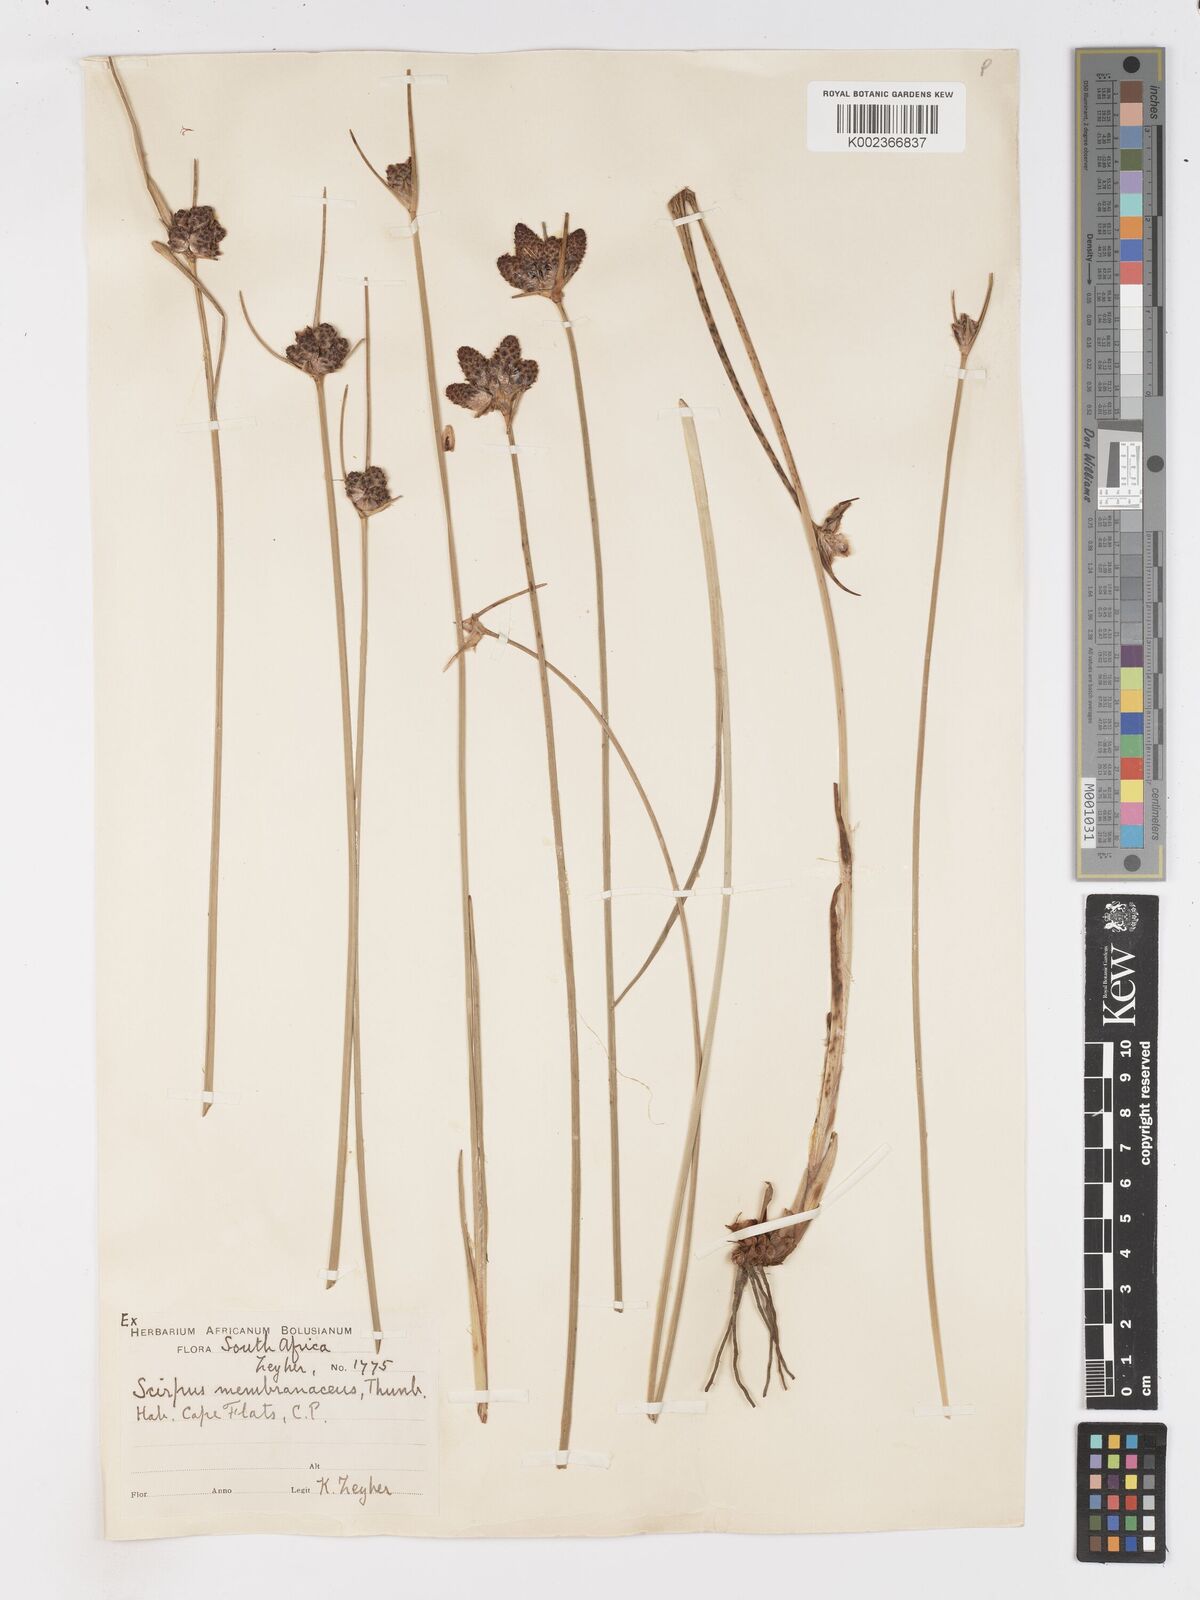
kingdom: Plantae
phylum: Tracheophyta
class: Liliopsida
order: Poales
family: Cyperaceae
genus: Hellmuthia
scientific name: Hellmuthia membranacea
